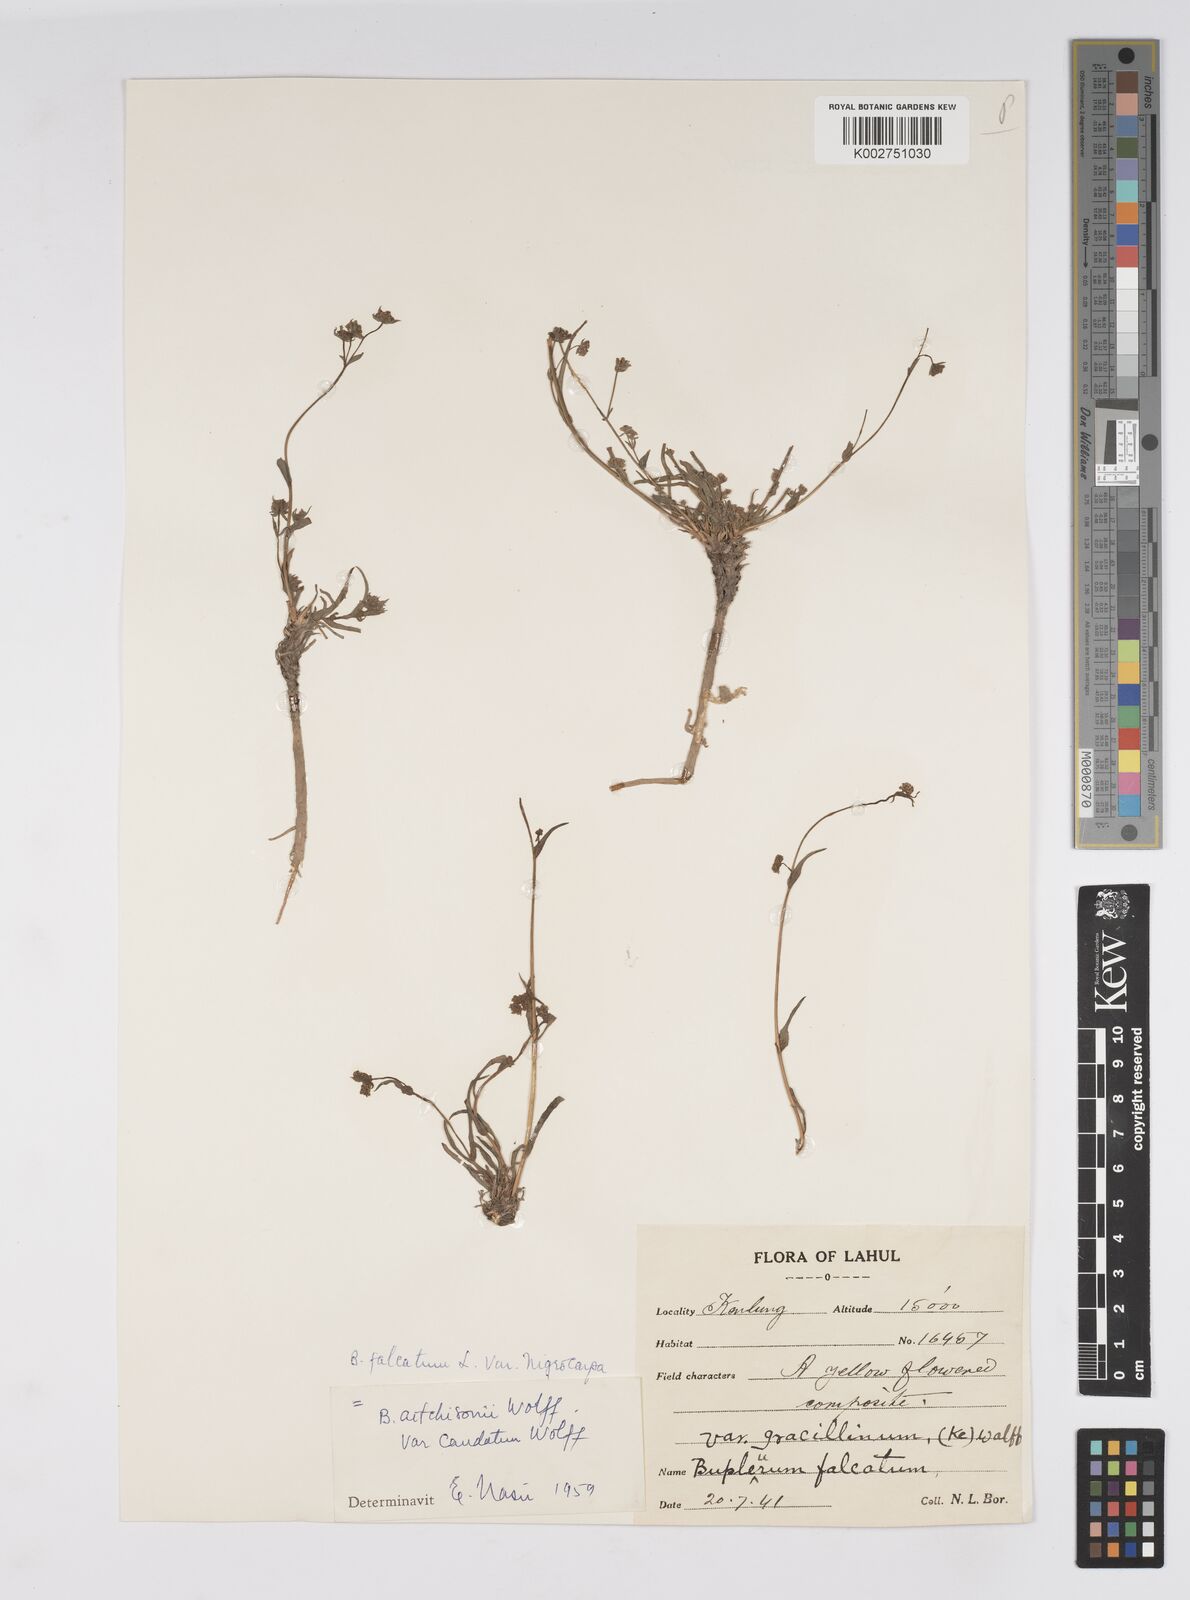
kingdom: Plantae
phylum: Tracheophyta
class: Magnoliopsida
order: Apiales
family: Apiaceae
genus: Bupleurum
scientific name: Bupleurum falcatum
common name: Sickle-leaved hare's-ear
